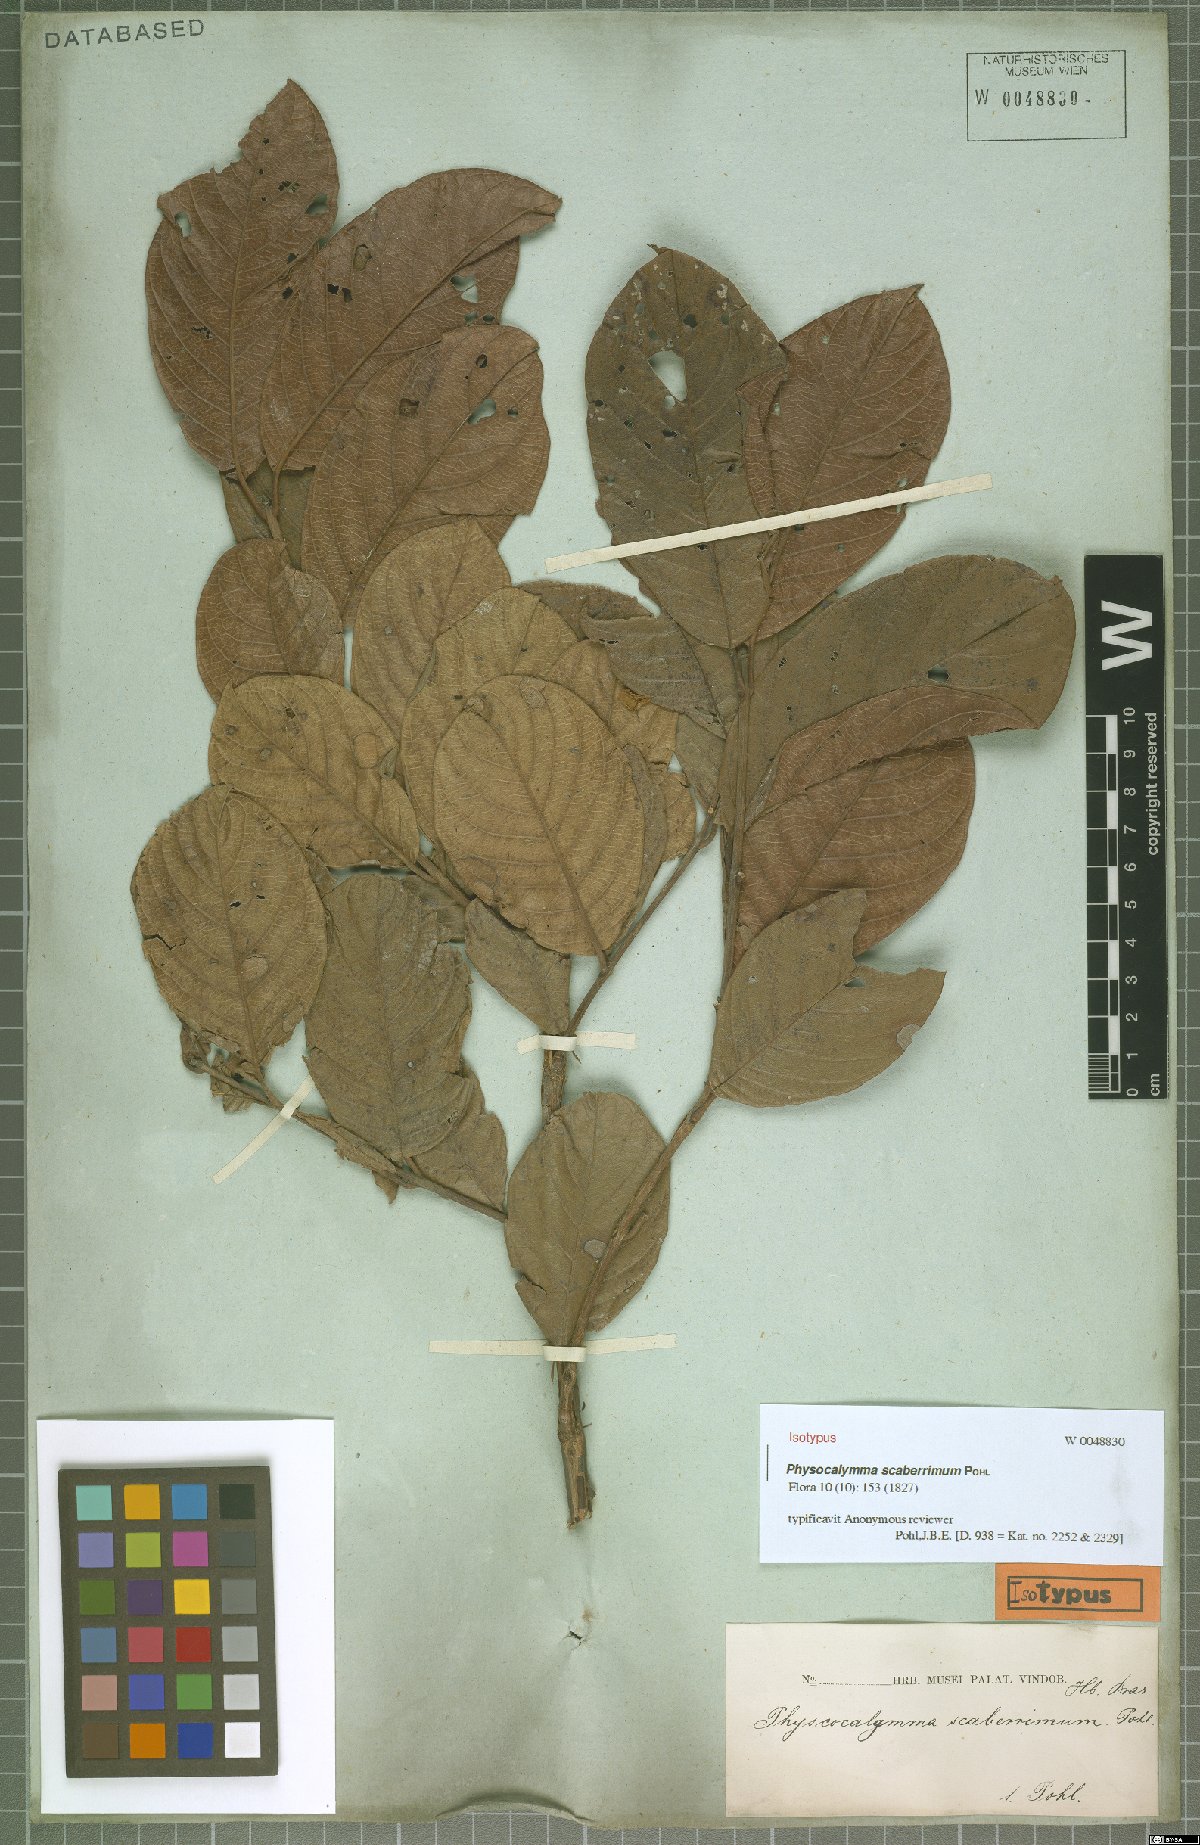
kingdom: Plantae
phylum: Tracheophyta
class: Magnoliopsida
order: Myrtales
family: Lythraceae
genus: Physocalymma
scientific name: Physocalymma scaberrimum
